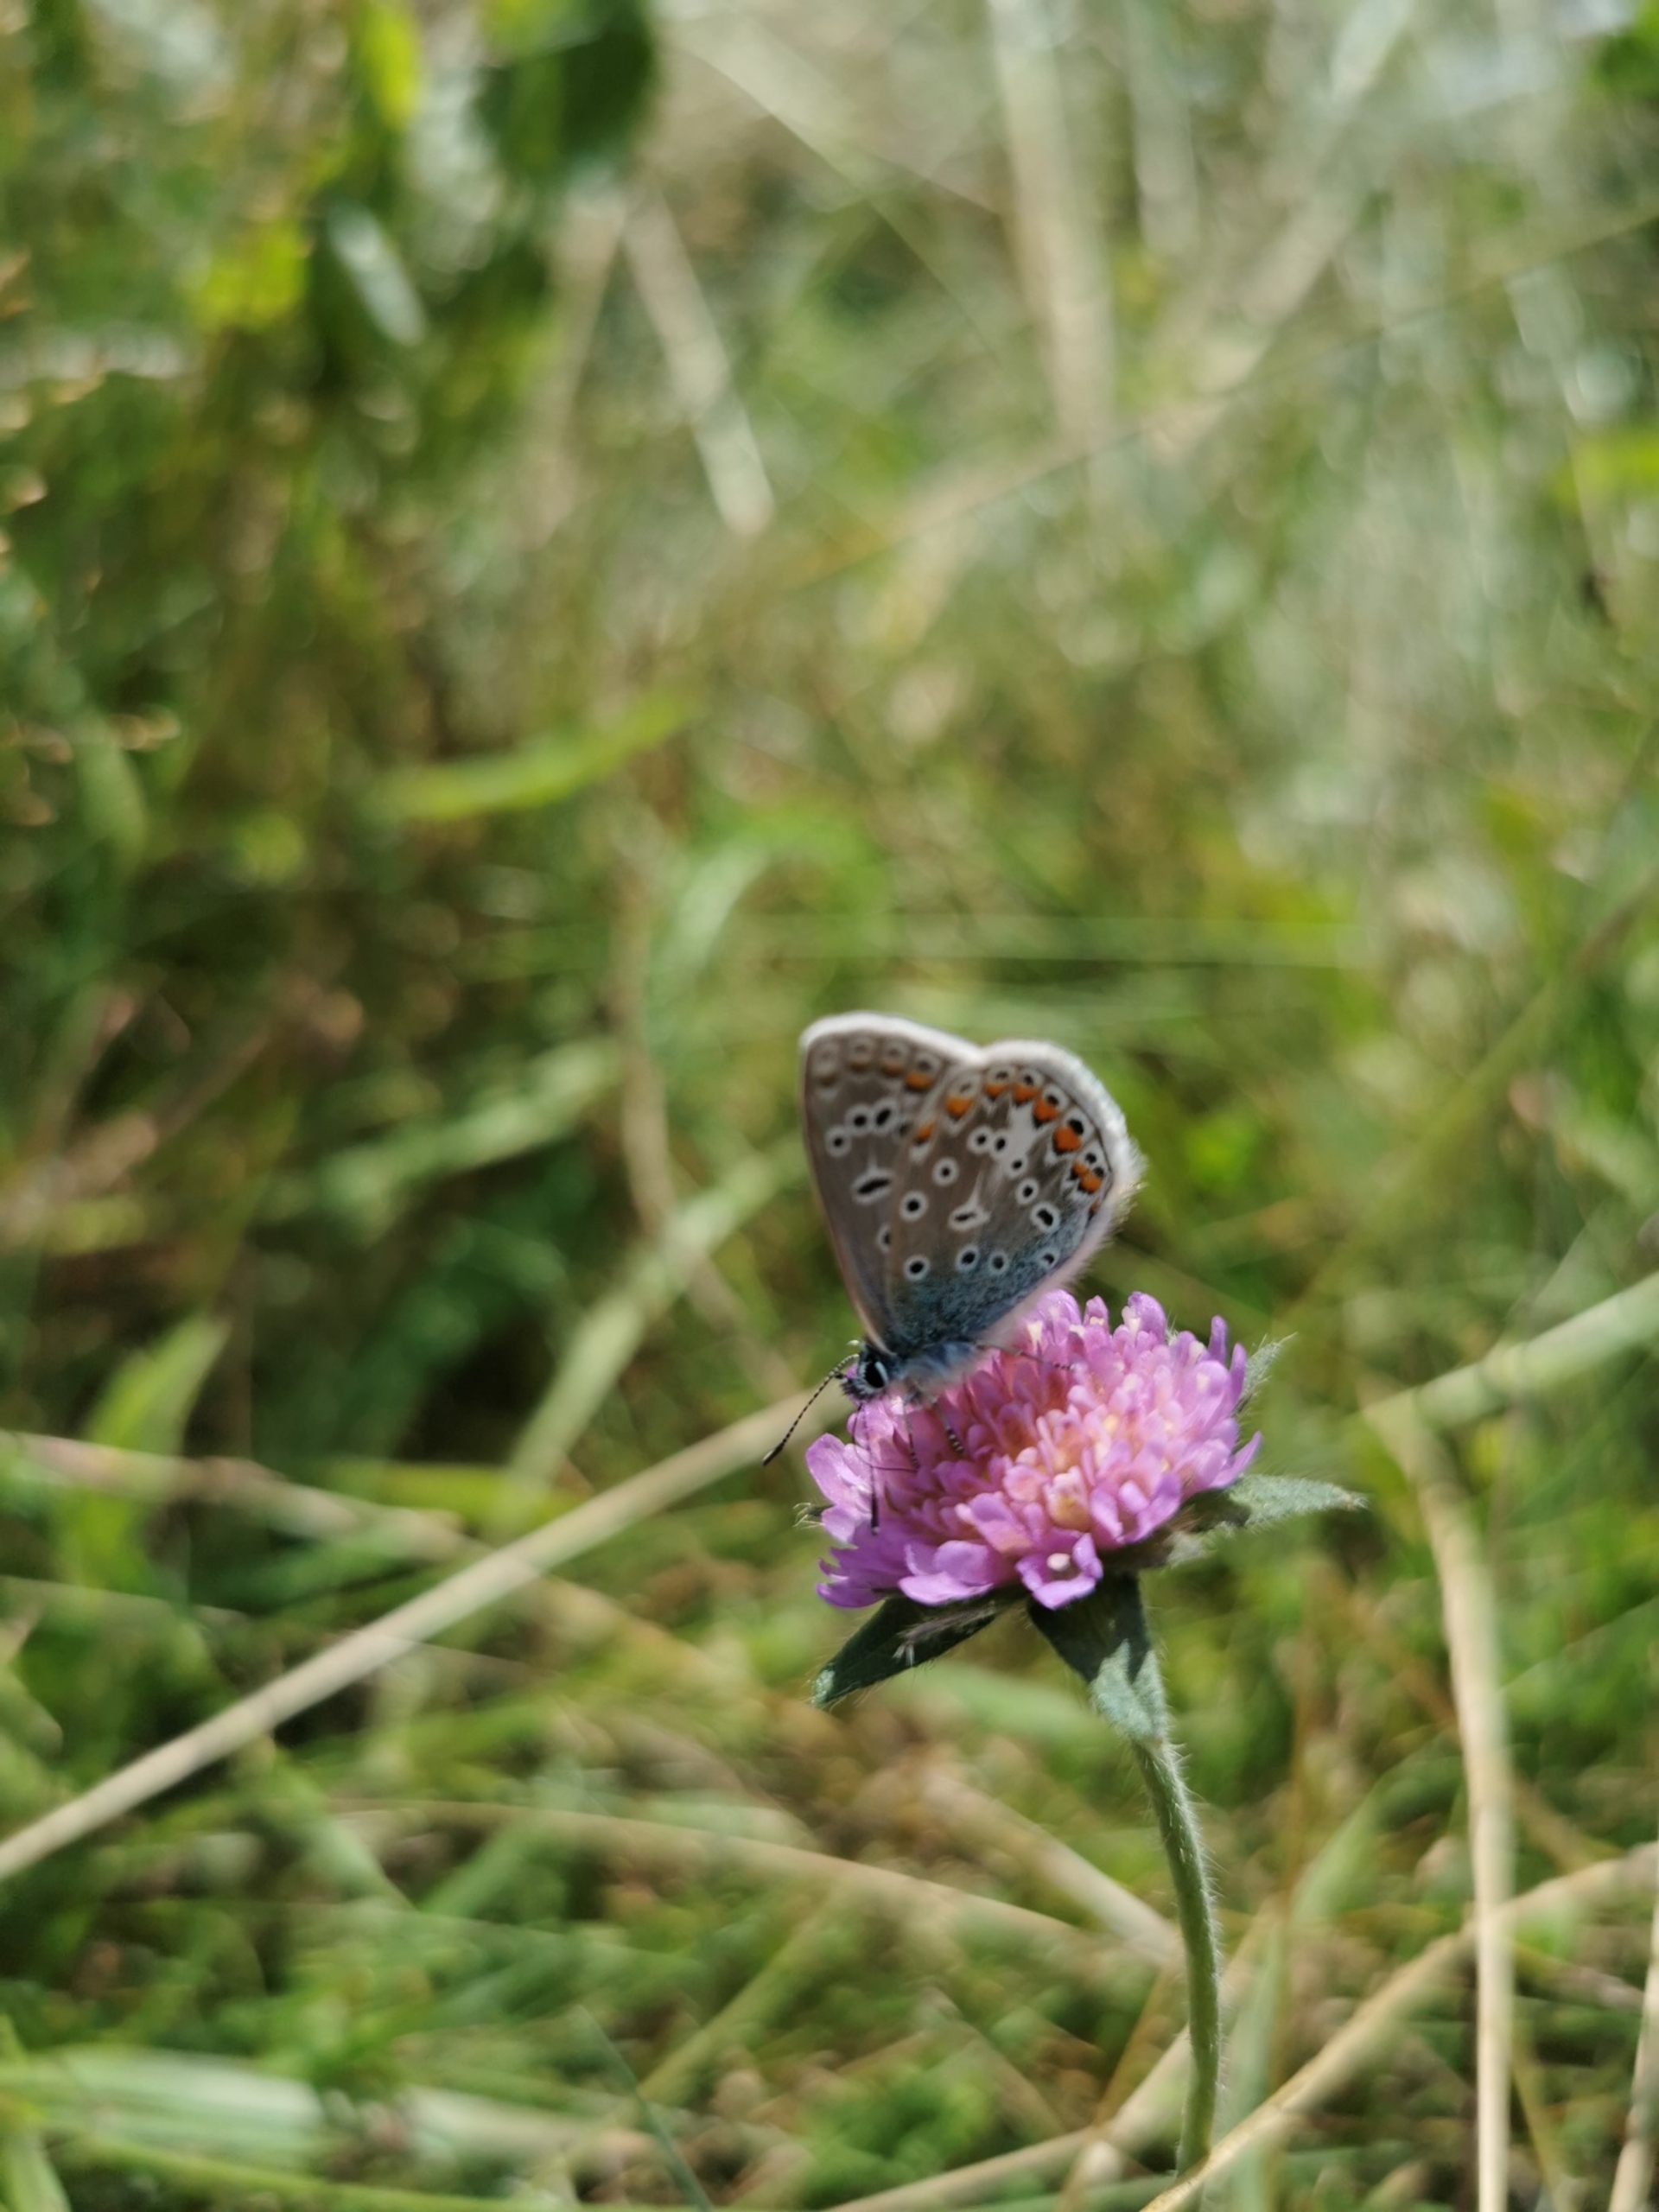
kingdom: Animalia
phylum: Arthropoda
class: Insecta
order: Lepidoptera
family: Lycaenidae
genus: Polyommatus
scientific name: Polyommatus icarus
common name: Almindelig blåfugl
